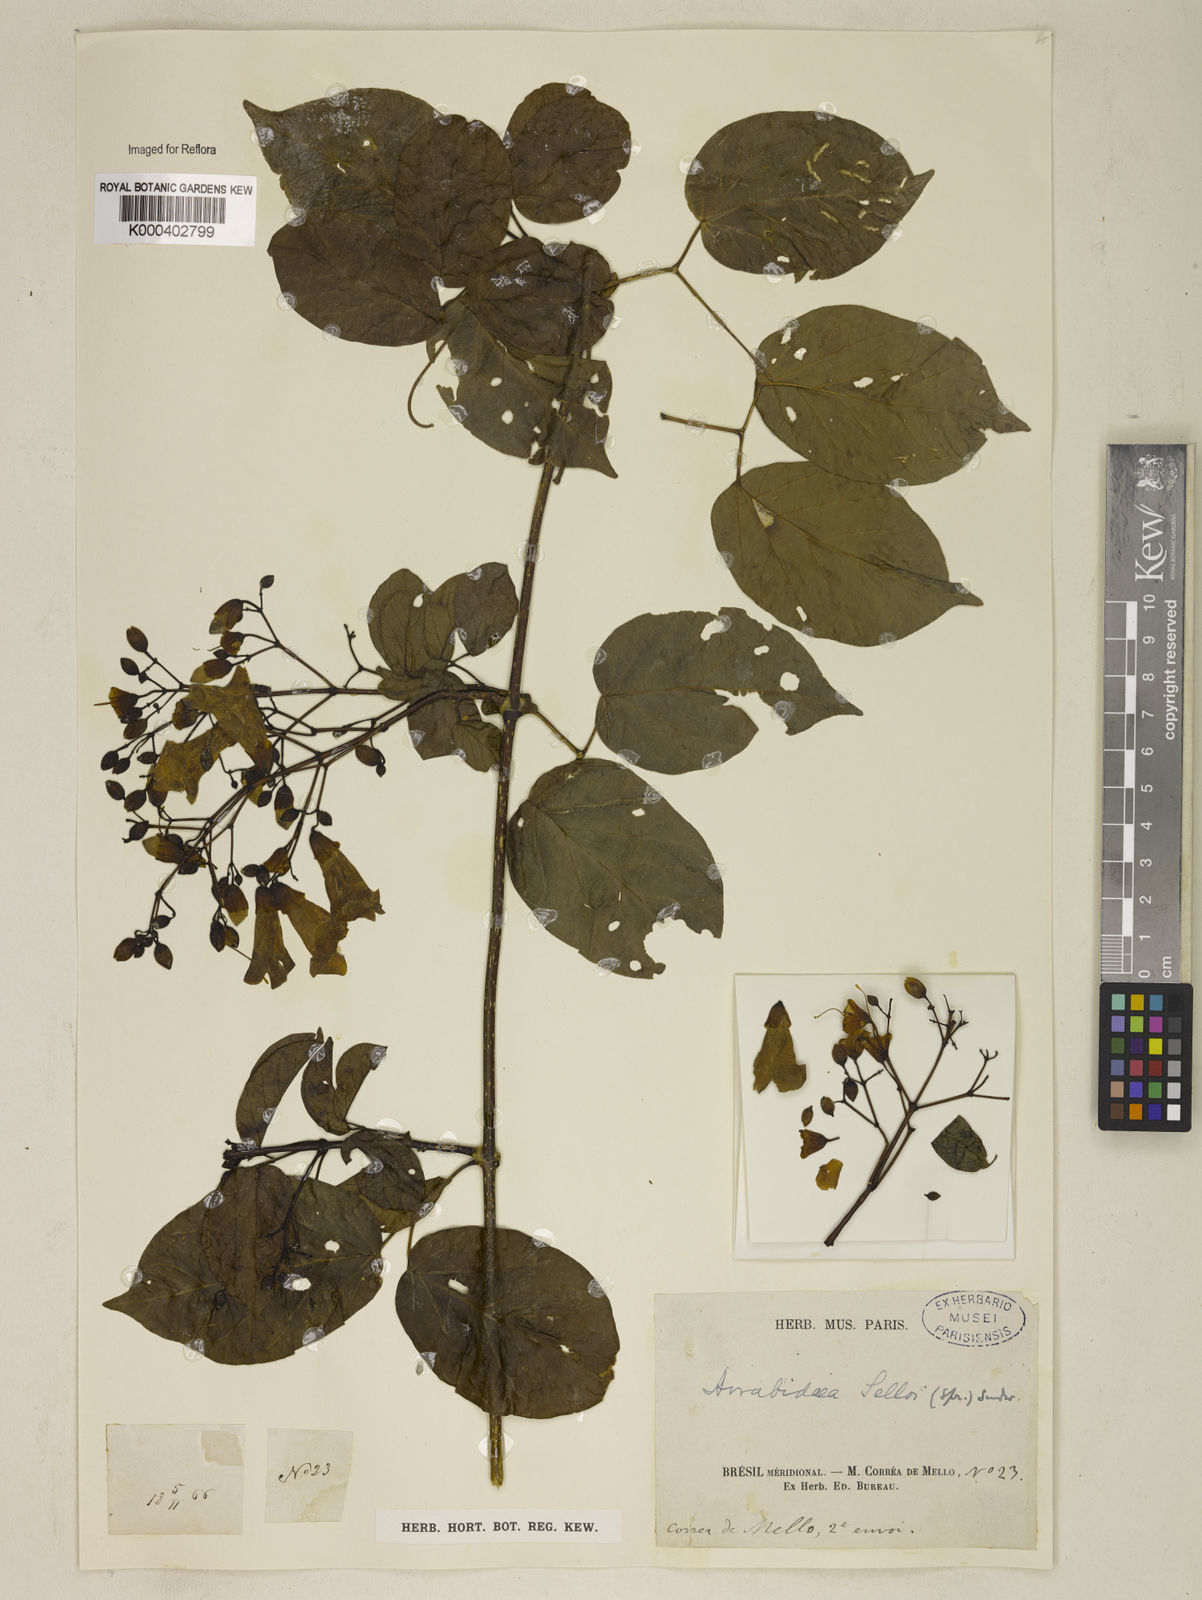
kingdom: Plantae
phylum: Tracheophyta
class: Magnoliopsida
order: Lamiales
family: Bignoniaceae
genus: Tanaecium
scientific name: Tanaecium selloi
